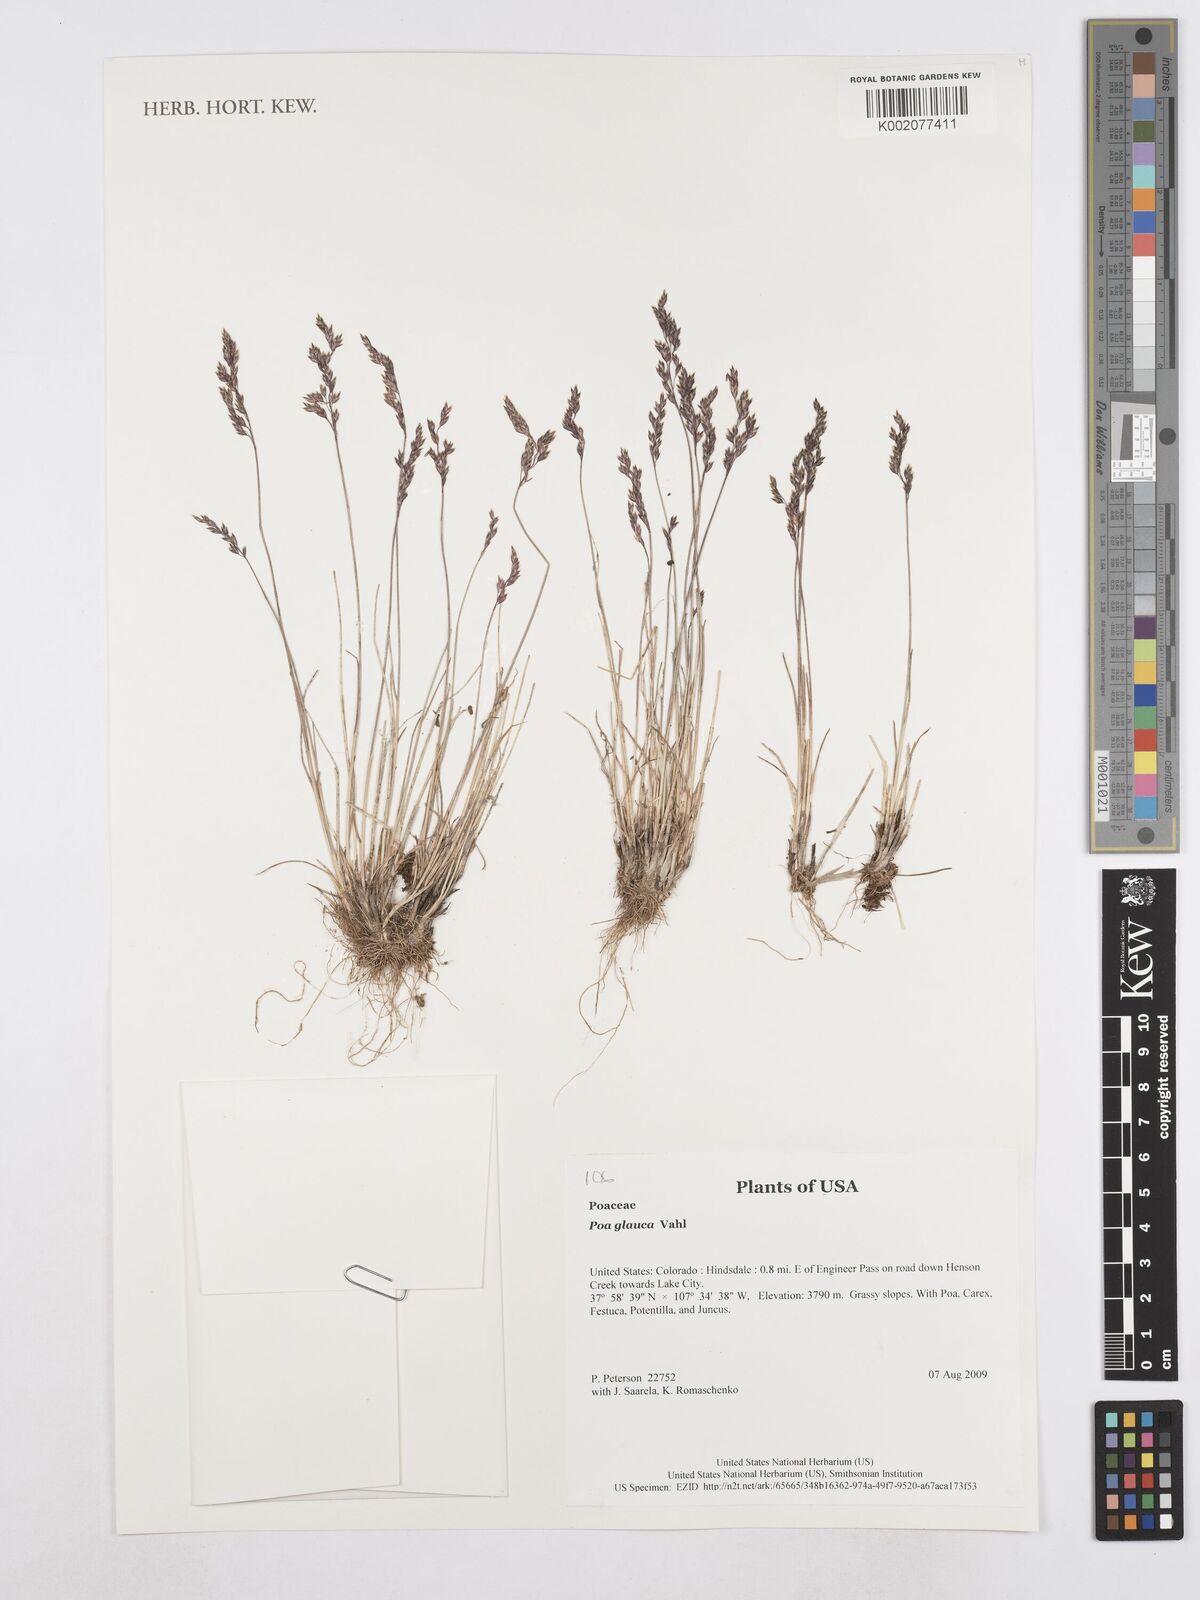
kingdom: Plantae
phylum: Tracheophyta
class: Liliopsida
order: Poales
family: Poaceae
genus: Poa
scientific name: Poa glauca
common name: Glaucous bluegrass
